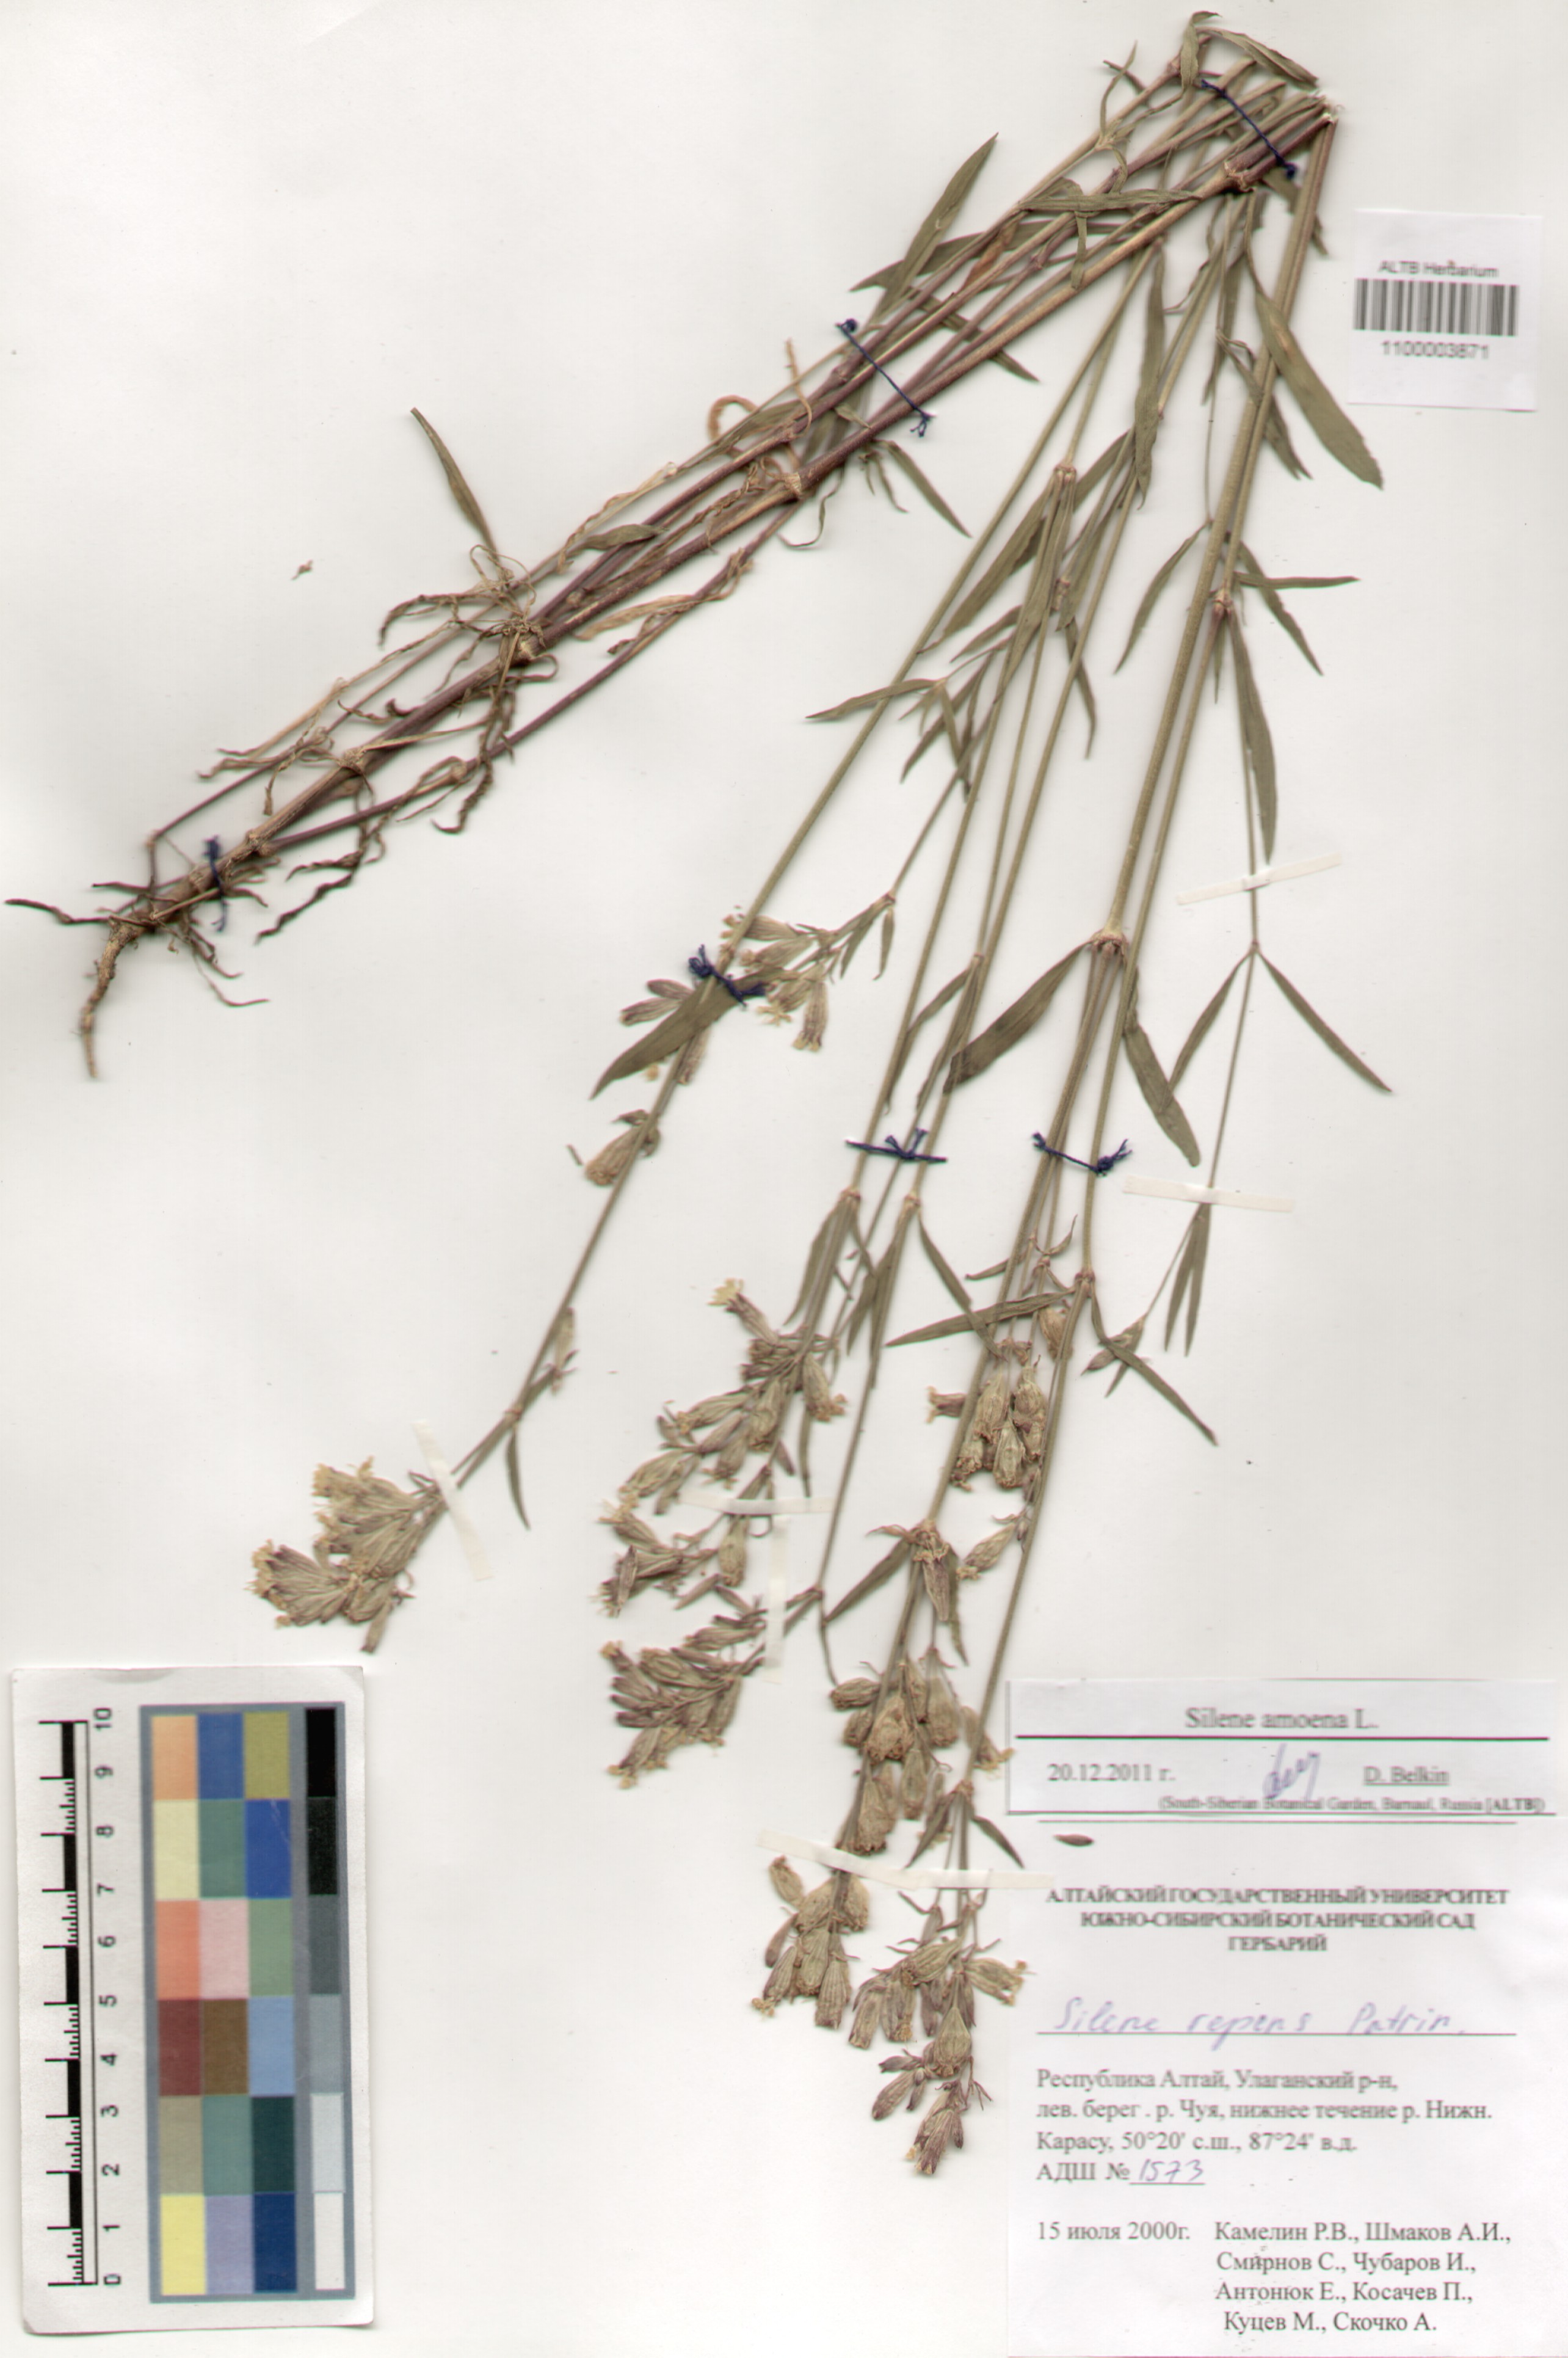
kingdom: Plantae
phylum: Tracheophyta
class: Magnoliopsida
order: Caryophyllales
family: Caryophyllaceae
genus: Silene
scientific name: Silene amoena
